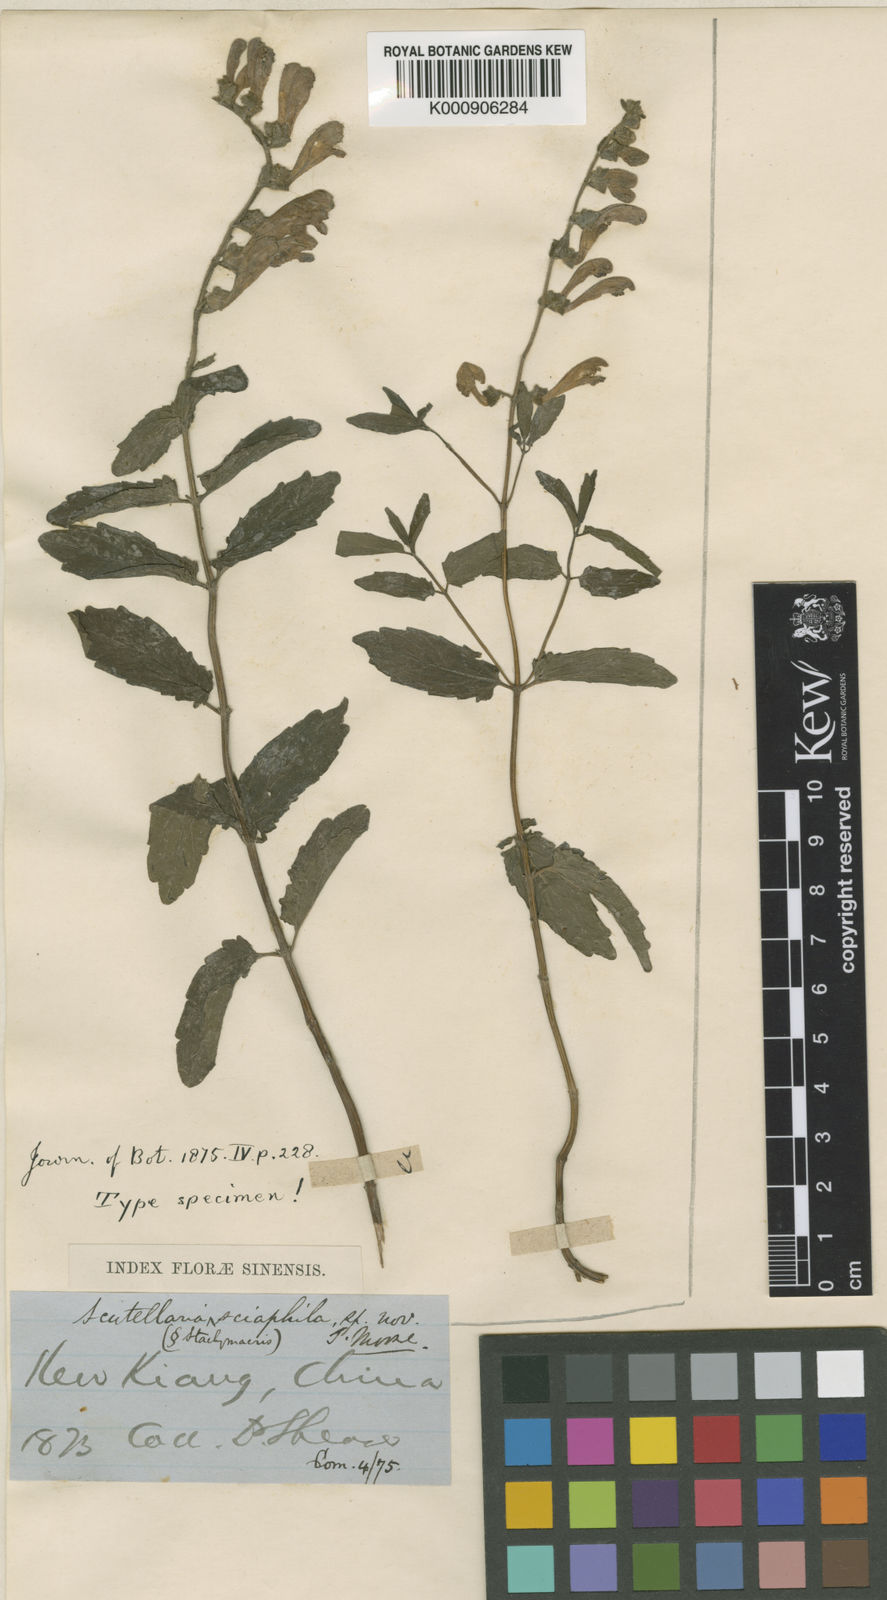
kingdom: Plantae
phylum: Tracheophyta
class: Magnoliopsida
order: Lamiales
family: Lamiaceae
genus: Scutellaria
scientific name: Scutellaria sciaphila
